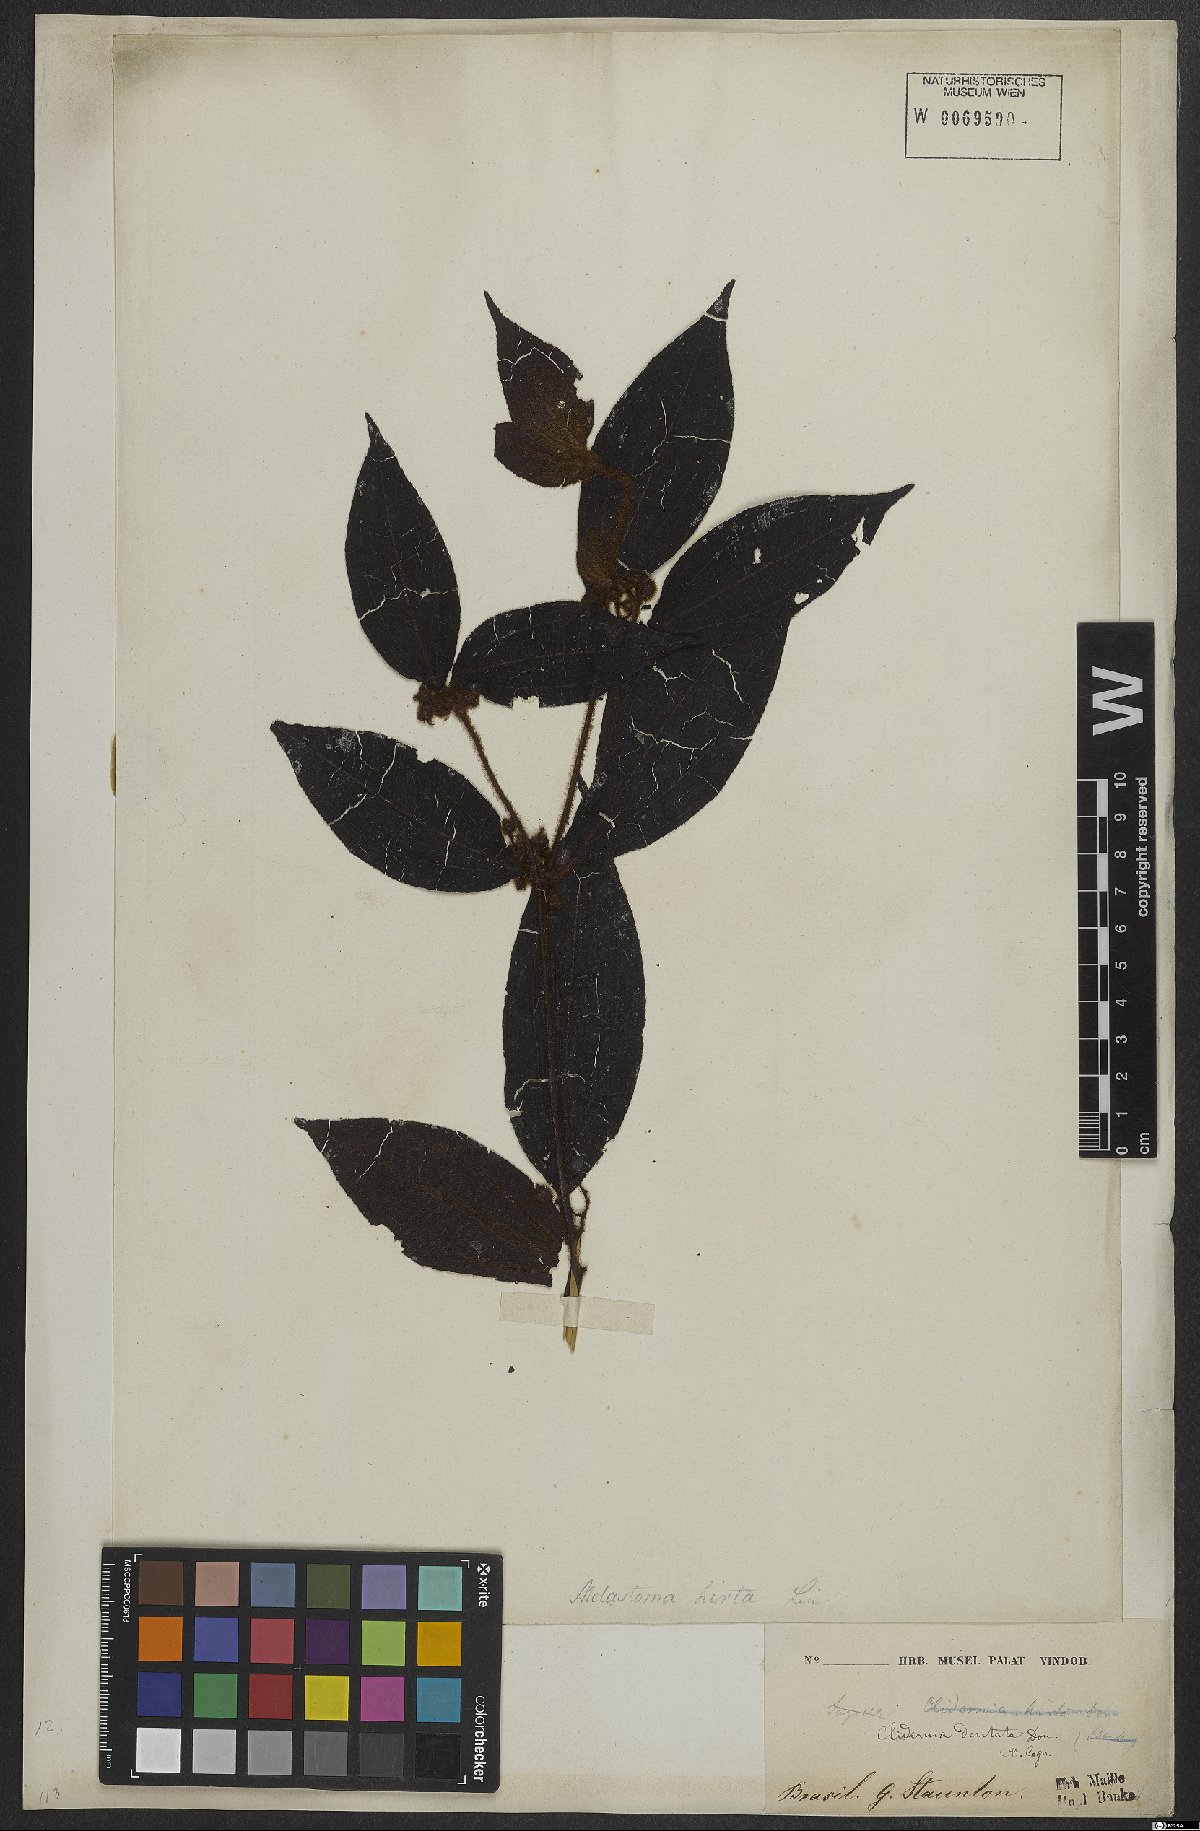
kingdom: Plantae
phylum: Tracheophyta
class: Magnoliopsida
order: Myrtales
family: Melastomataceae
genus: Miconia
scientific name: Miconia dentata
